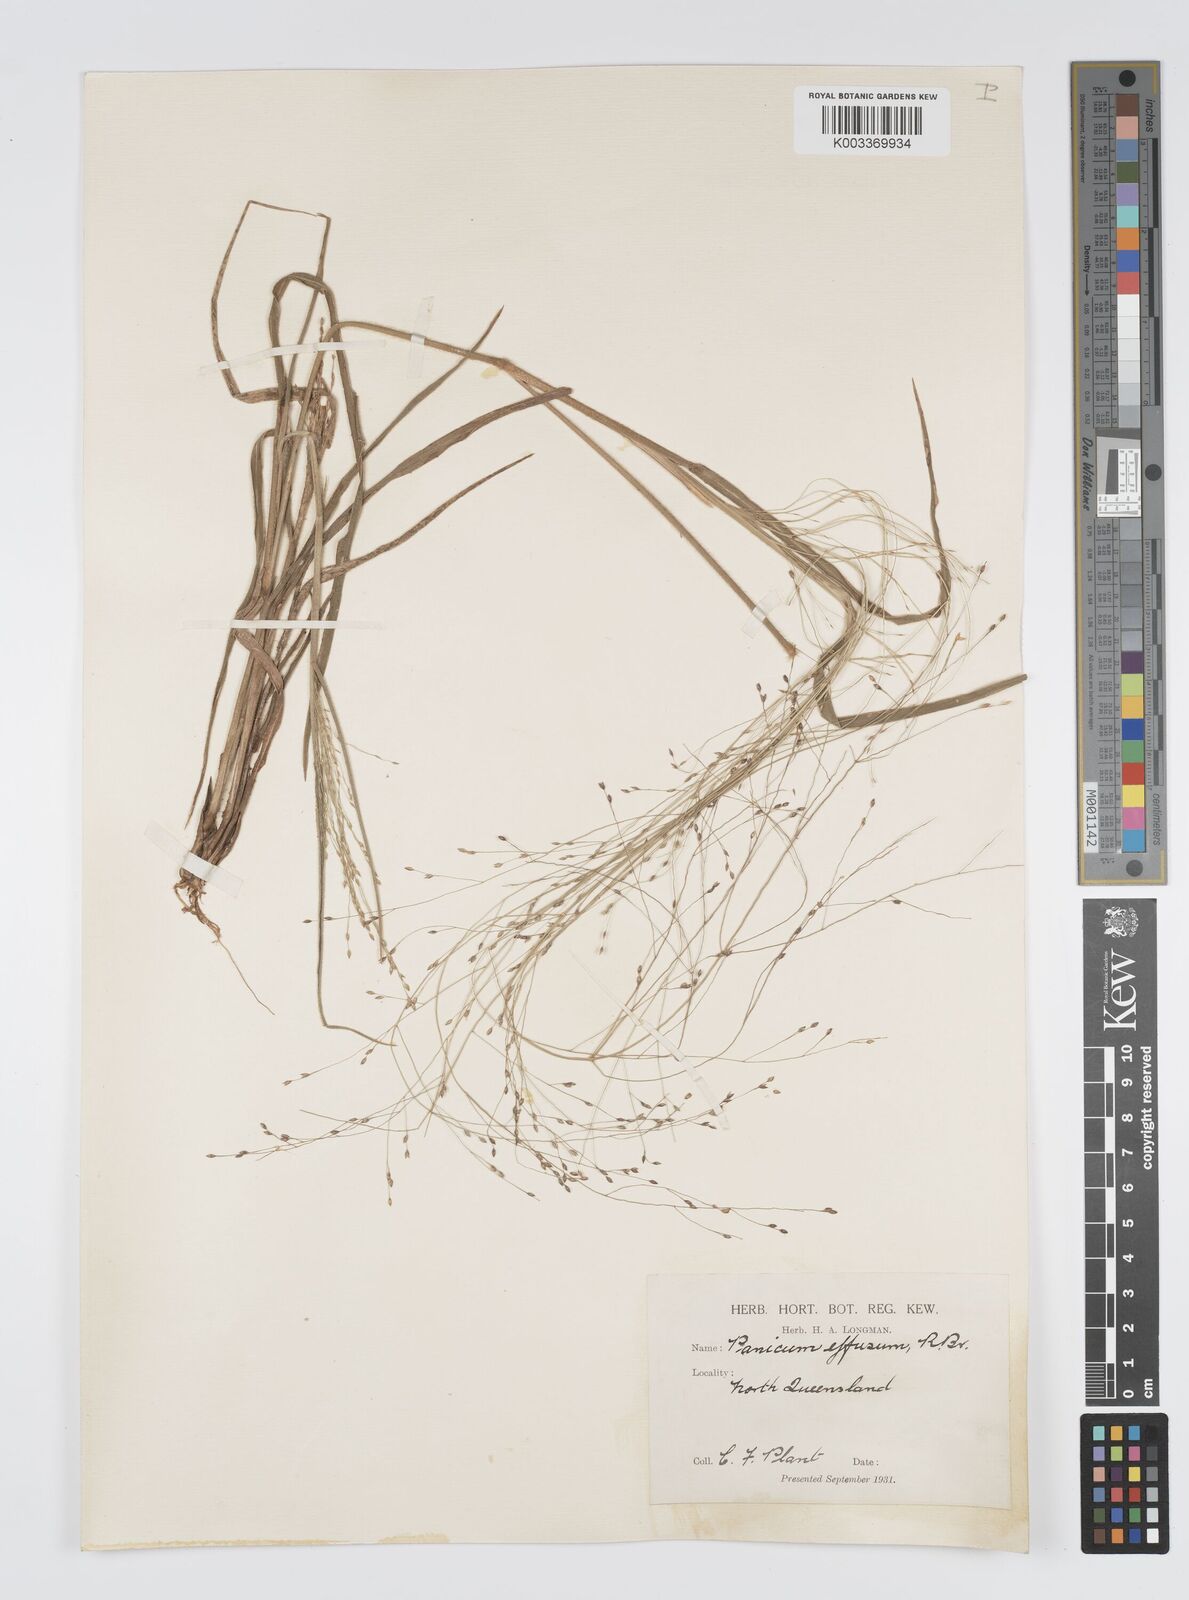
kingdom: Plantae
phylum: Tracheophyta
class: Liliopsida
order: Poales
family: Poaceae
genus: Panicum
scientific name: Panicum effusum
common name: Hairy panic grass
